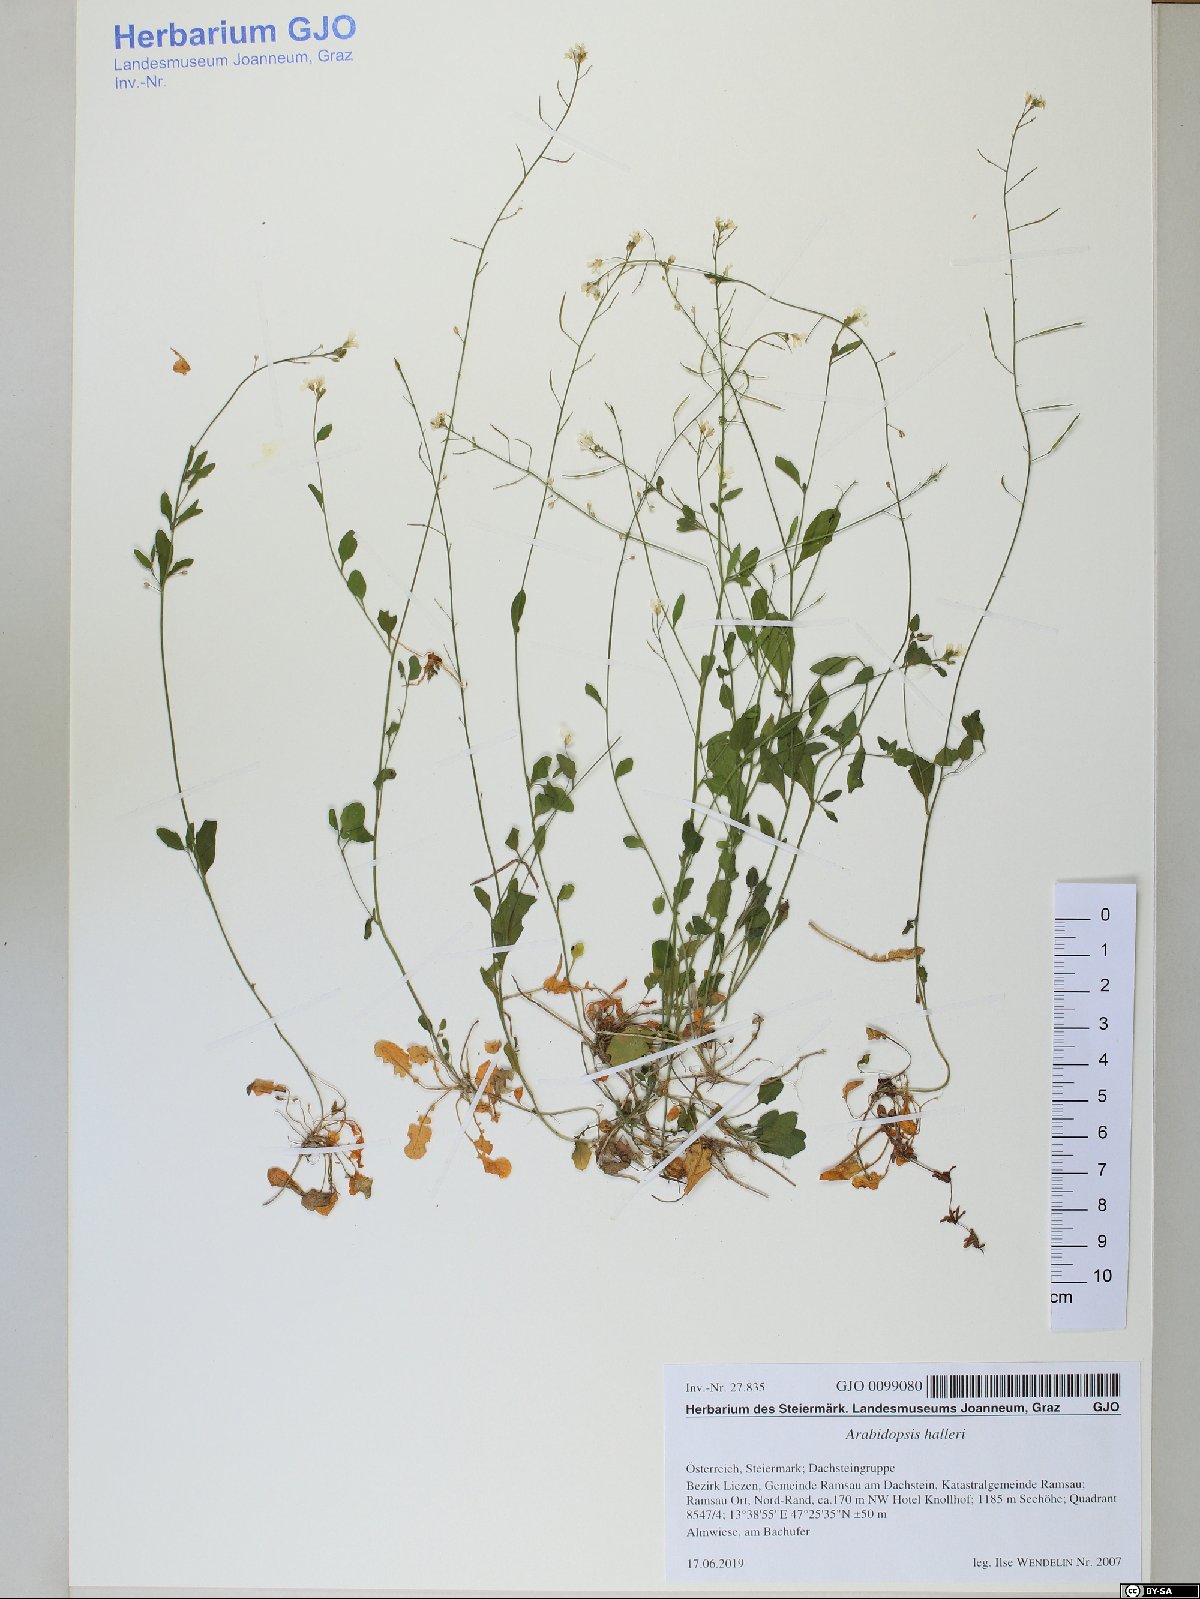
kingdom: Plantae
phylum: Tracheophyta
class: Magnoliopsida
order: Brassicales
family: Brassicaceae
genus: Arabidopsis
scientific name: Arabidopsis halleri
